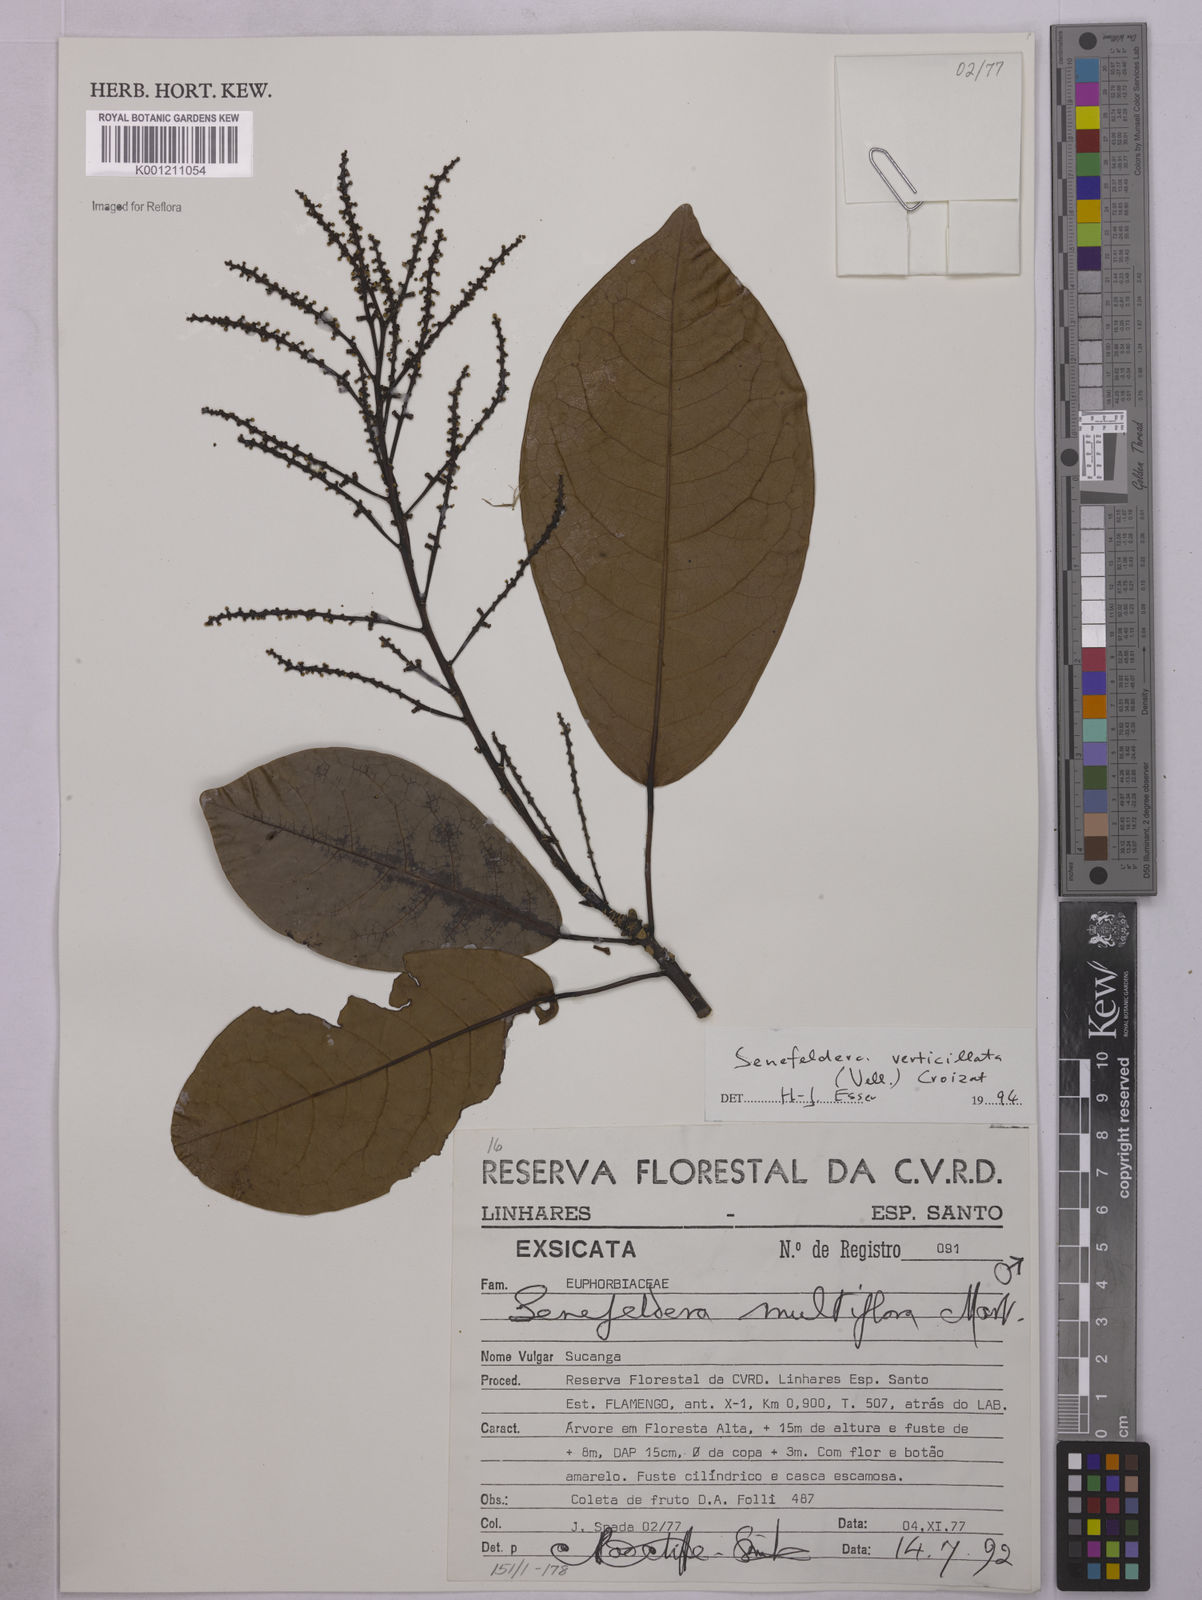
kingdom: Plantae
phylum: Tracheophyta
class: Magnoliopsida
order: Malpighiales
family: Euphorbiaceae
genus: Senefeldera
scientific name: Senefeldera verticillata
